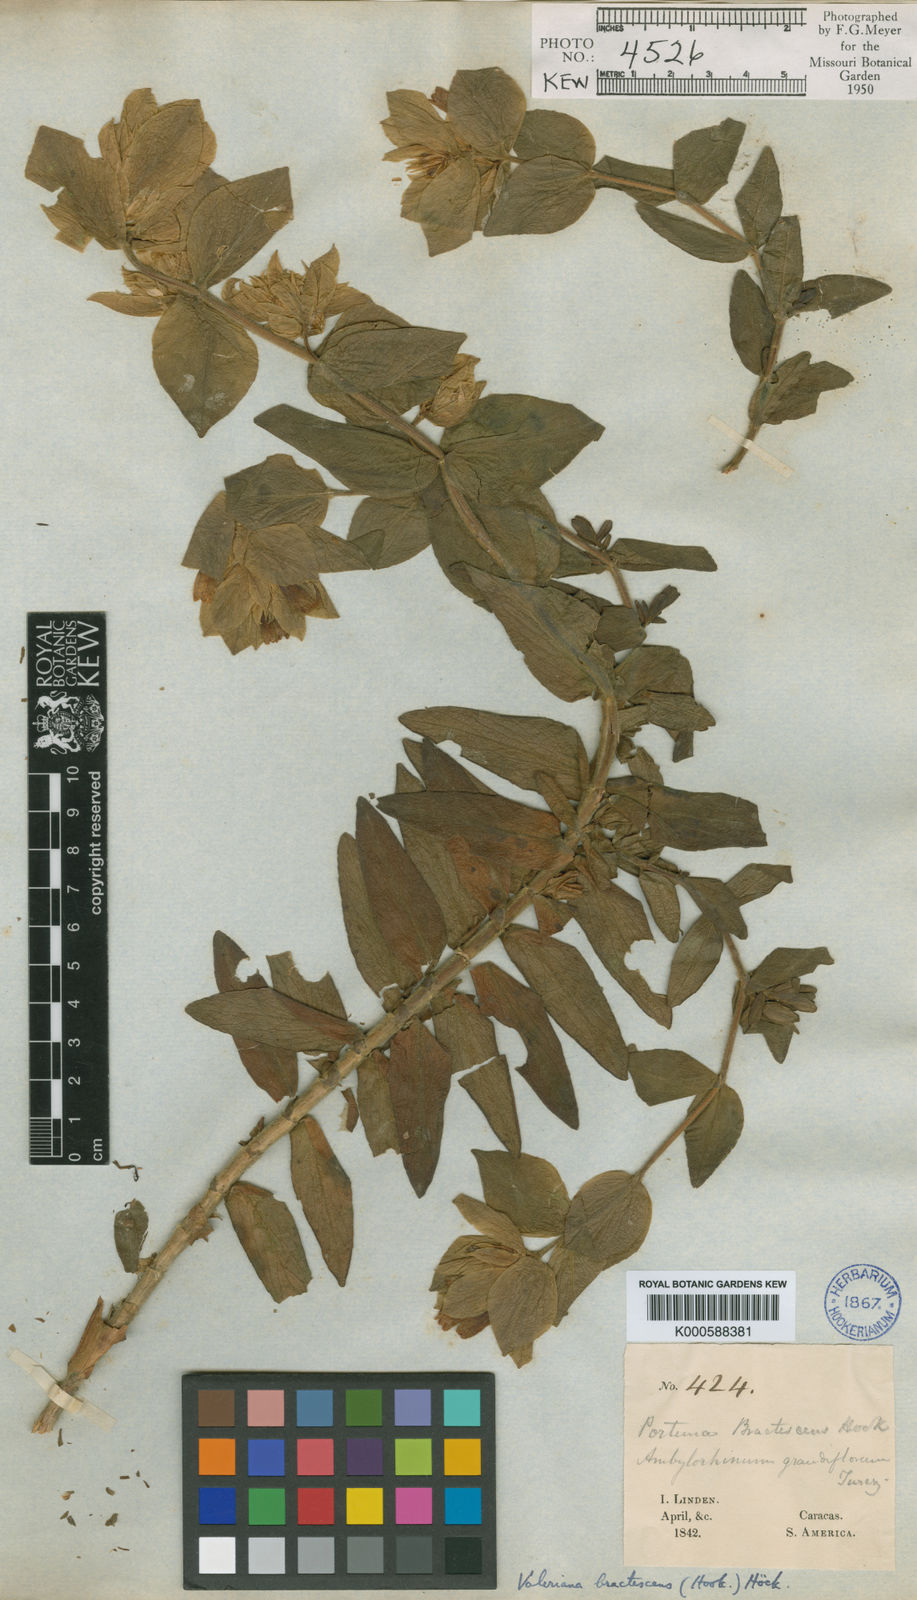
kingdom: Plantae
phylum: Tracheophyta
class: Magnoliopsida
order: Dipsacales
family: Caprifoliaceae
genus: Valeriana
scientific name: Valeriana
